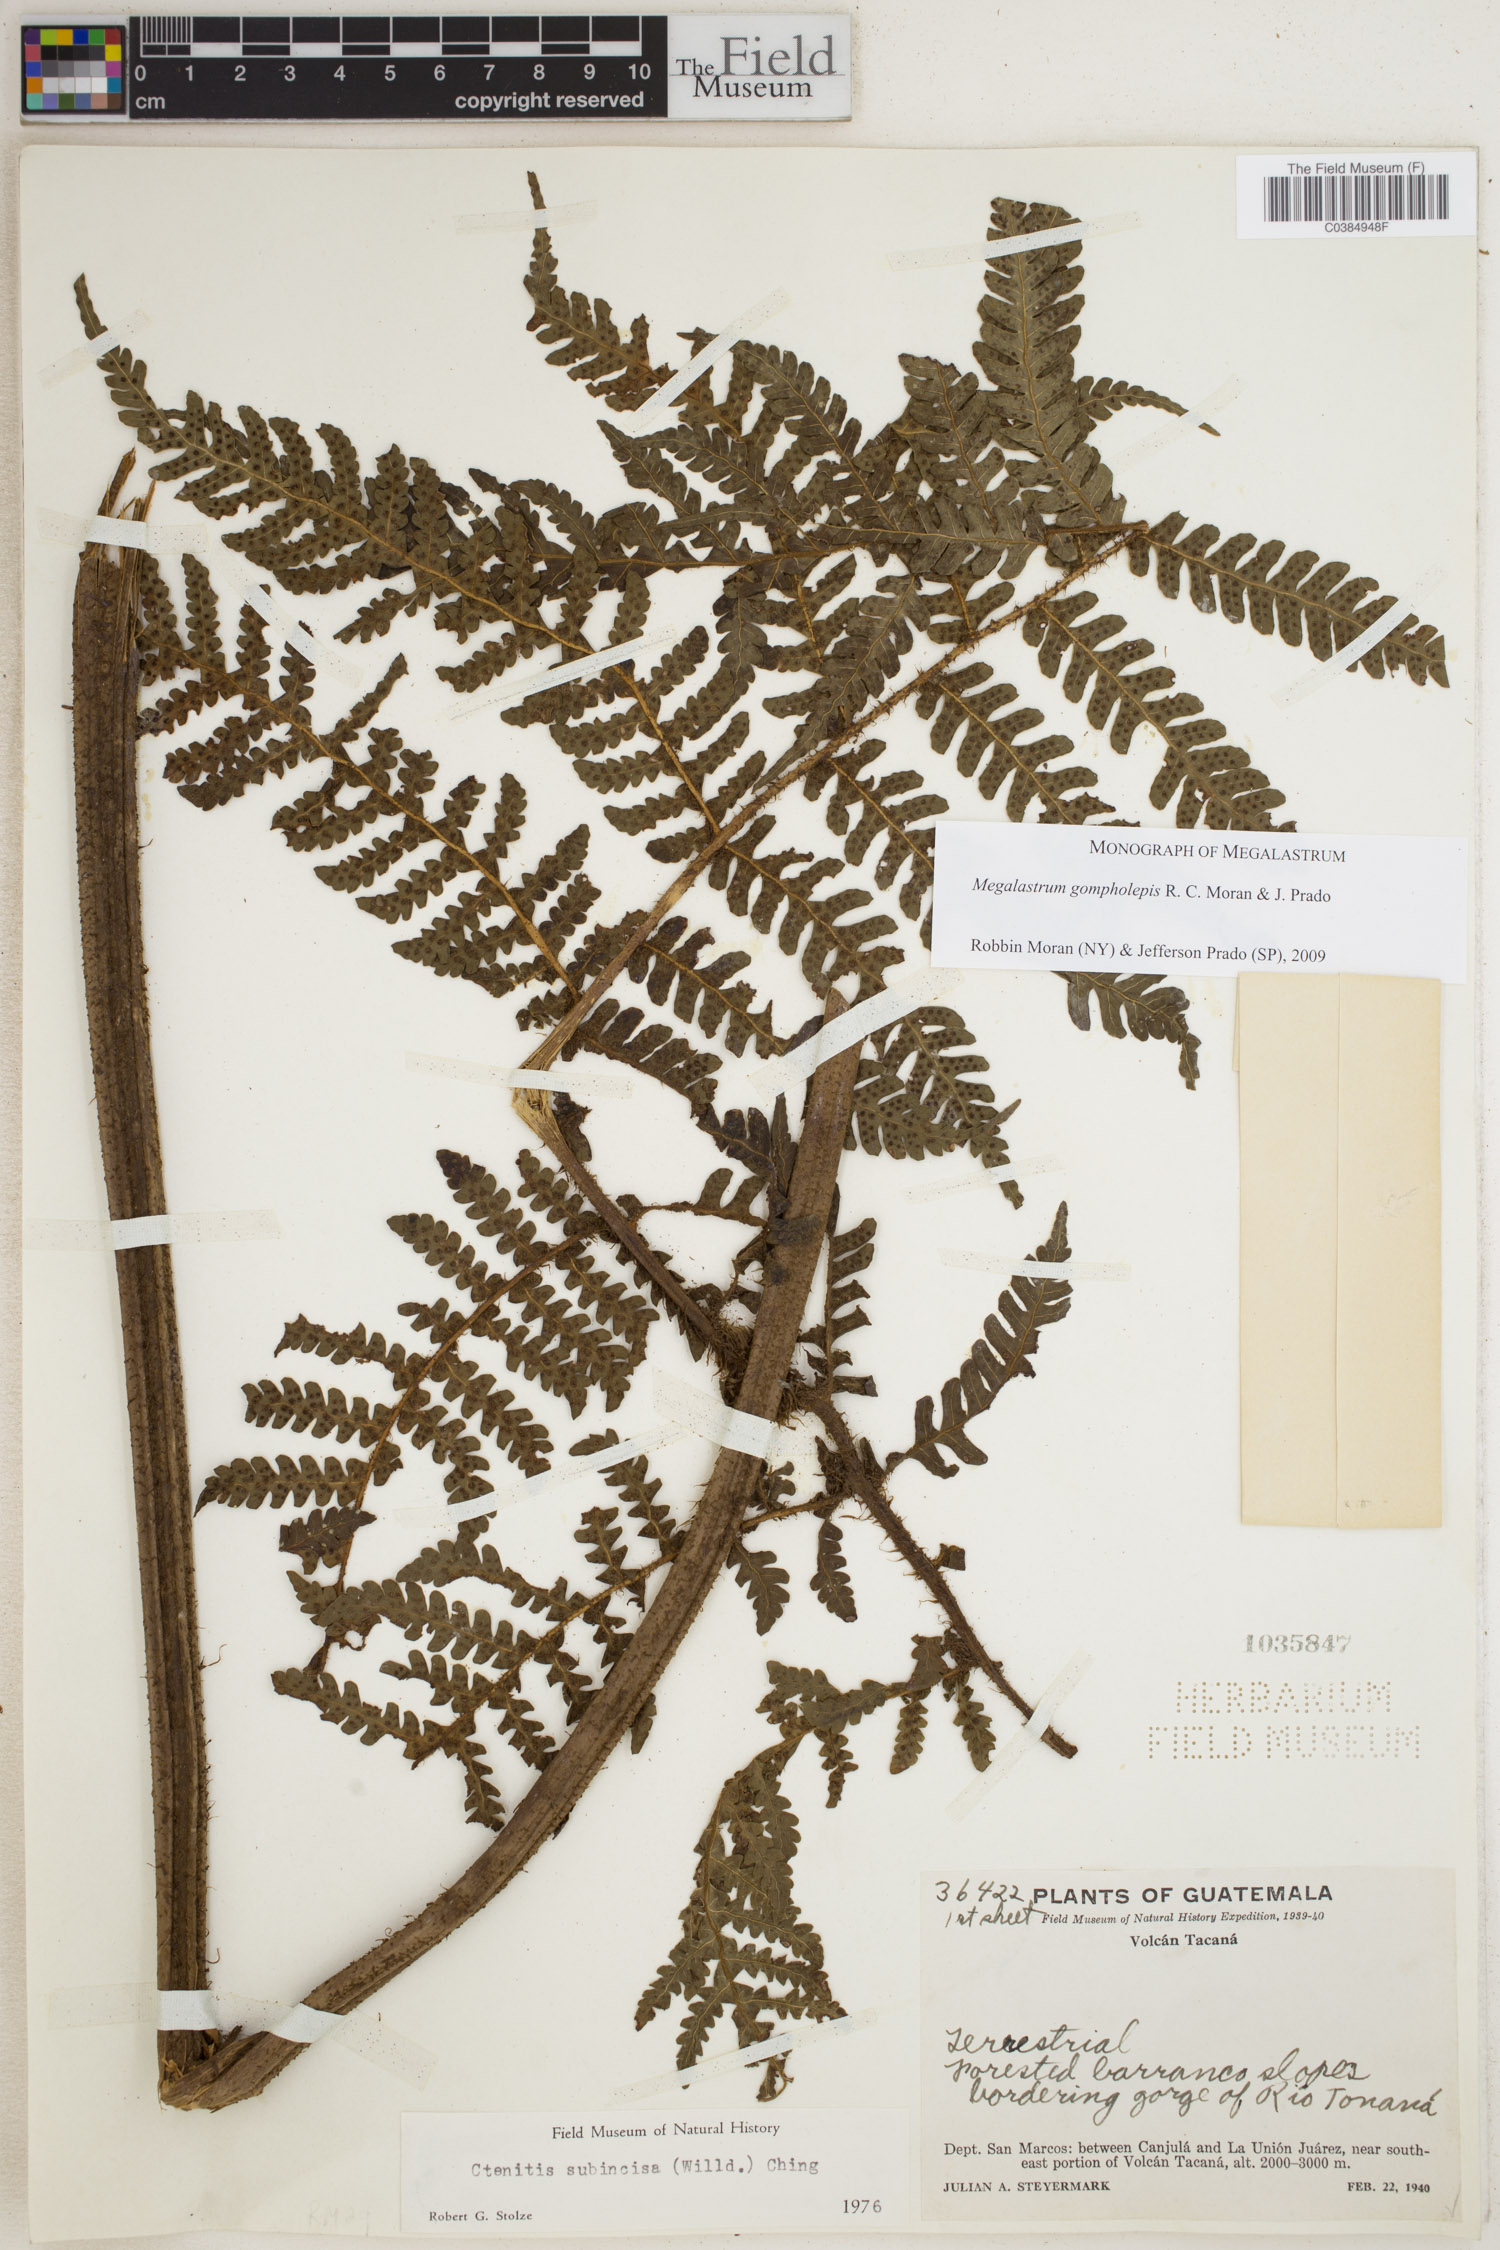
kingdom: Plantae
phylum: Tracheophyta
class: Polypodiopsida
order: Polypodiales
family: Dryopteridaceae
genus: Megalastrum
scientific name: Megalastrum gompholepis
